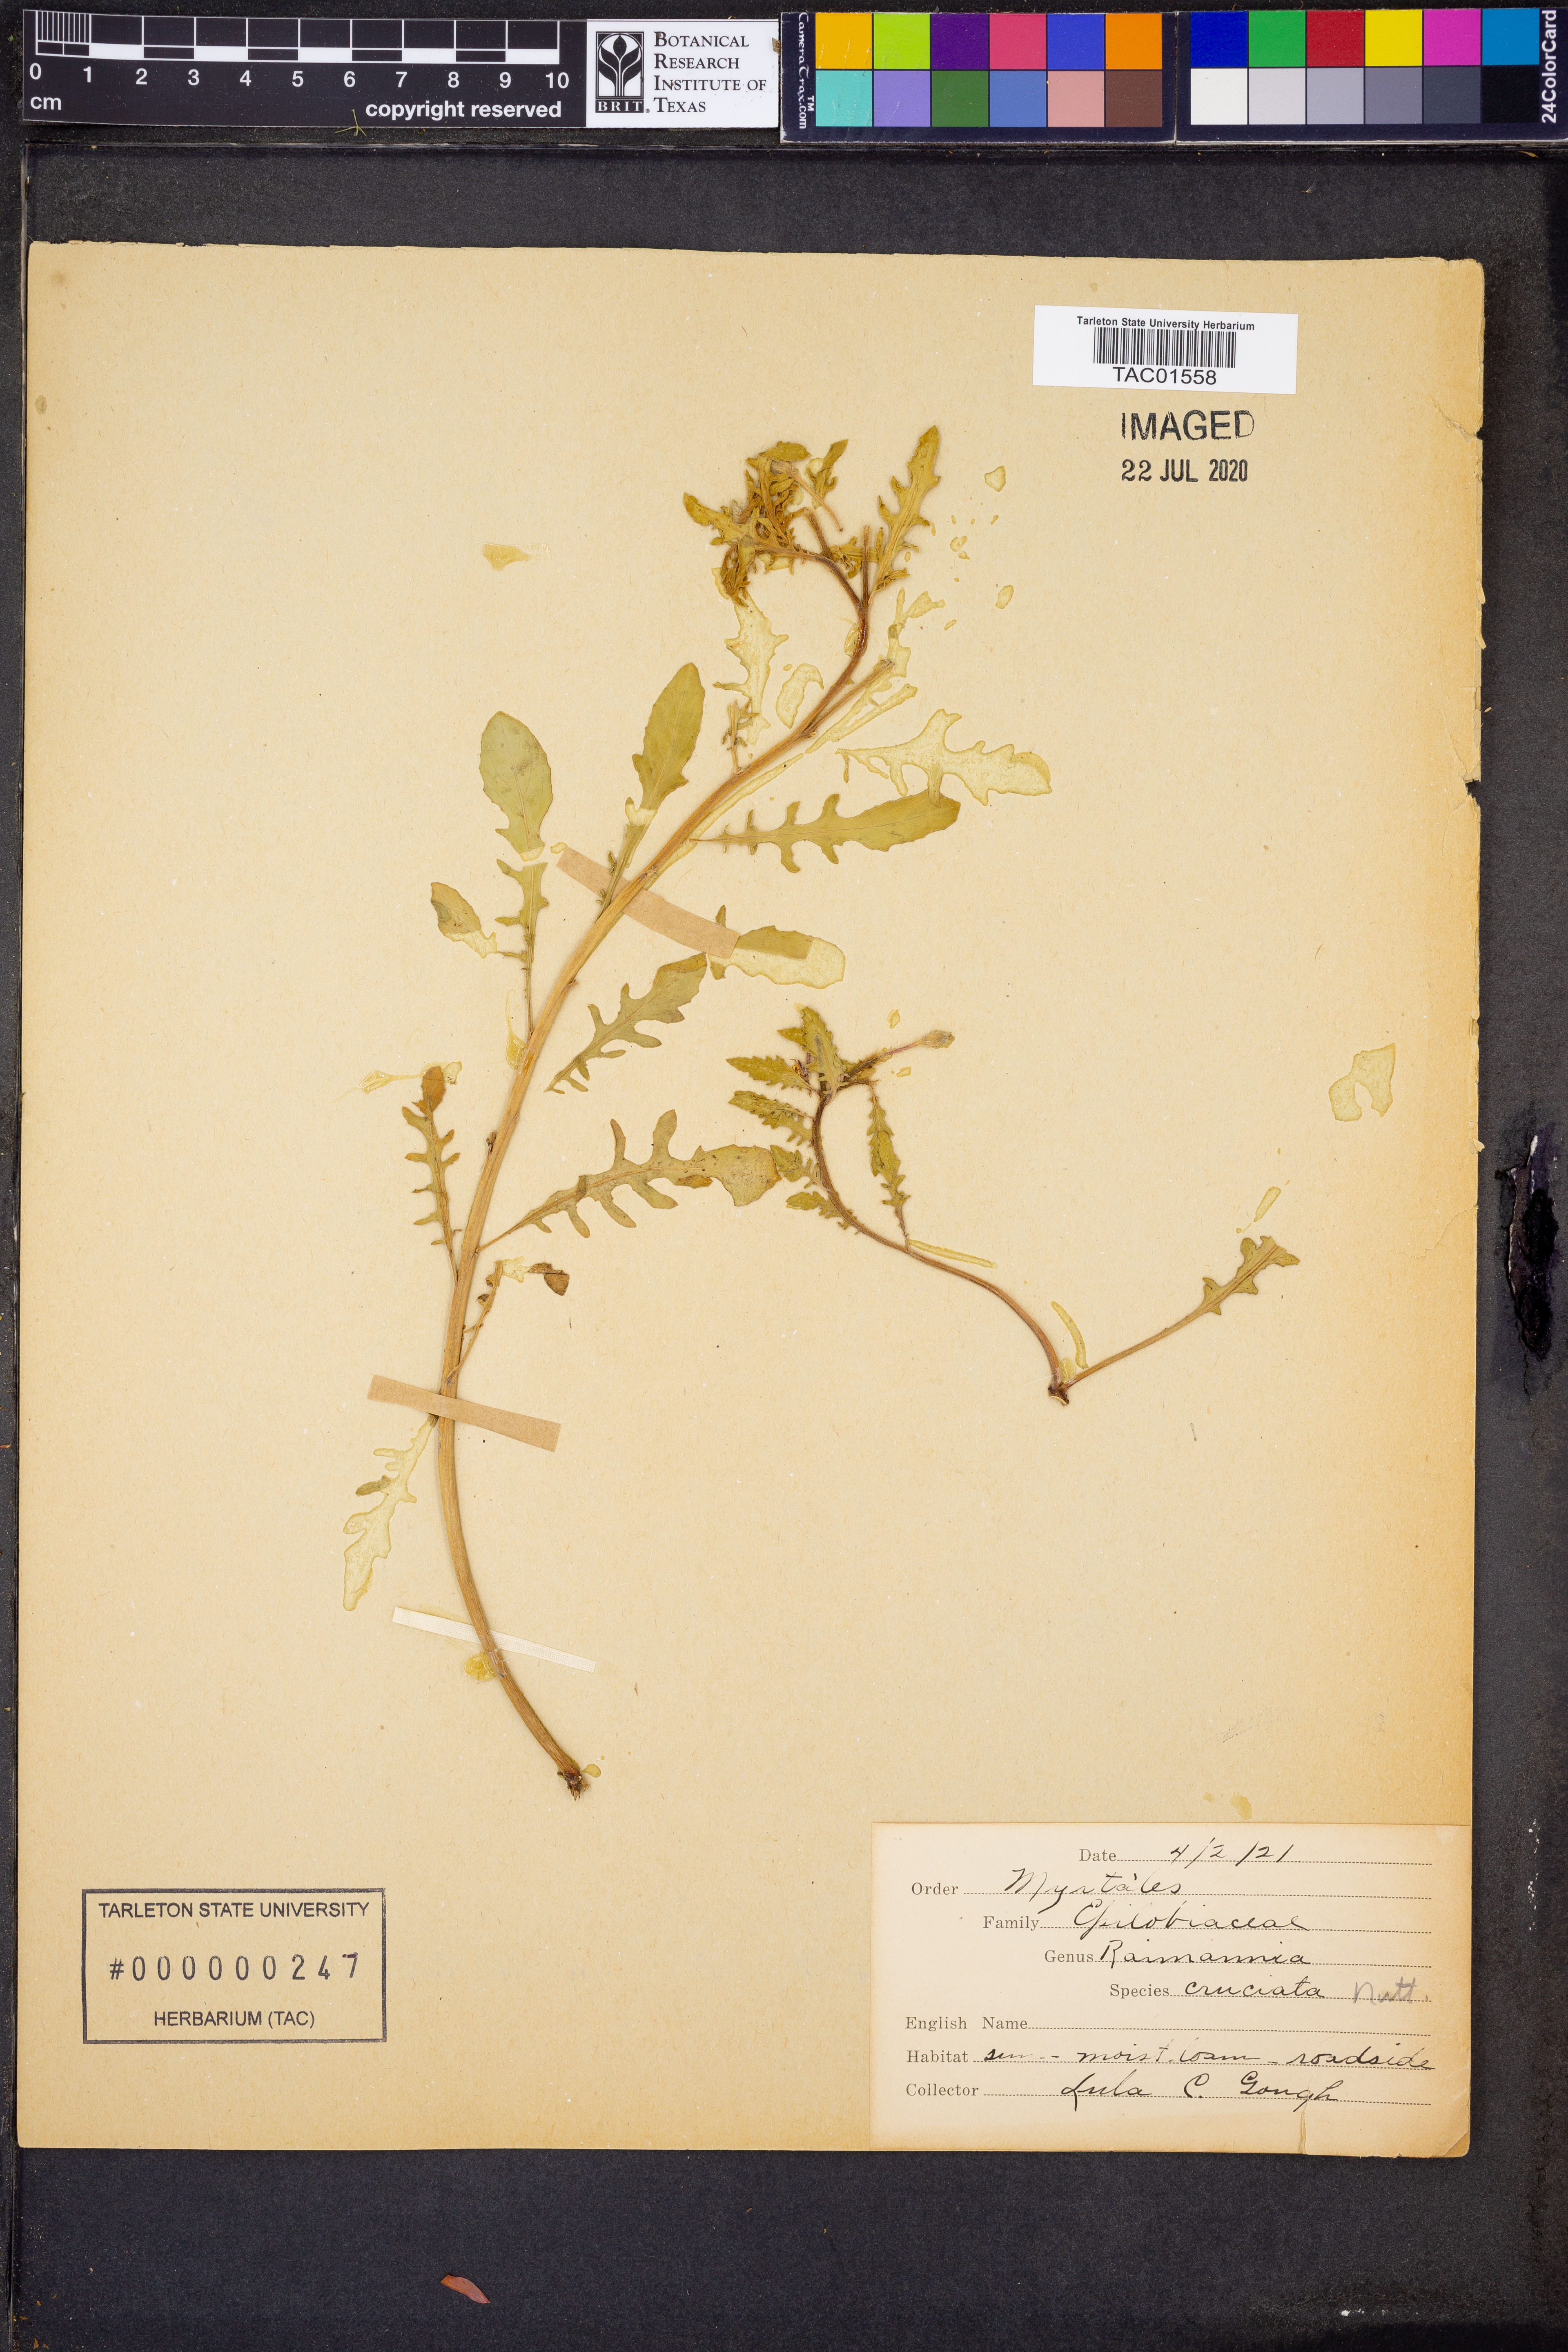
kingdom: Plantae
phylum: Tracheophyta
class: Magnoliopsida
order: Myrtales
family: Onagraceae
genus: Oenothera
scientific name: Oenothera
